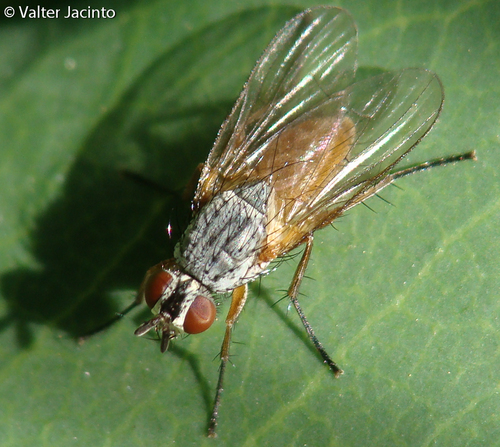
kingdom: Animalia
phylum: Arthropoda
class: Insecta
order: Diptera
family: Anthomyiidae
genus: Pegomya
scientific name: Pegomya bicolor
